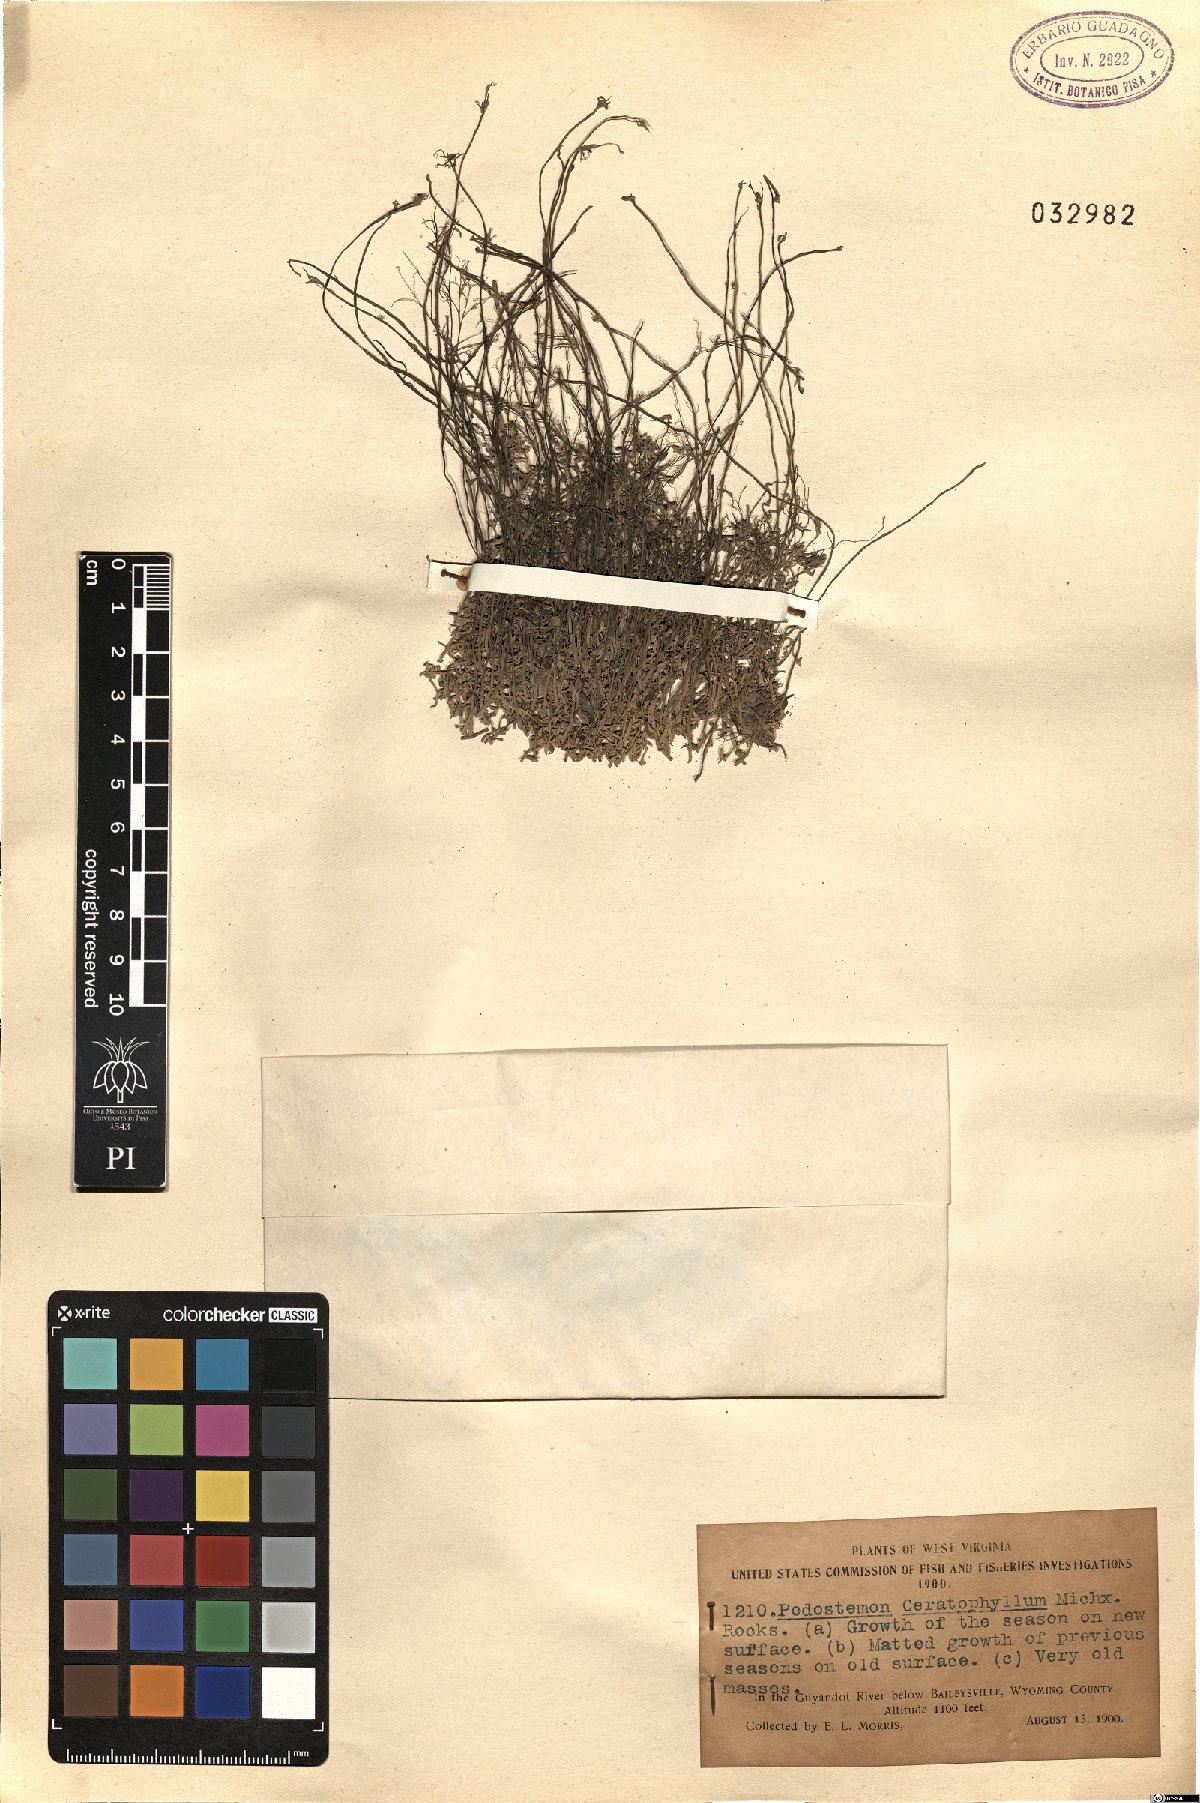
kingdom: Plantae
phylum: Tracheophyta
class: Magnoliopsida
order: Malpighiales
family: Podostemaceae
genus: Podostemum
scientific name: Podostemum ceratophyllum
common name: Horn-leaved riverweed
